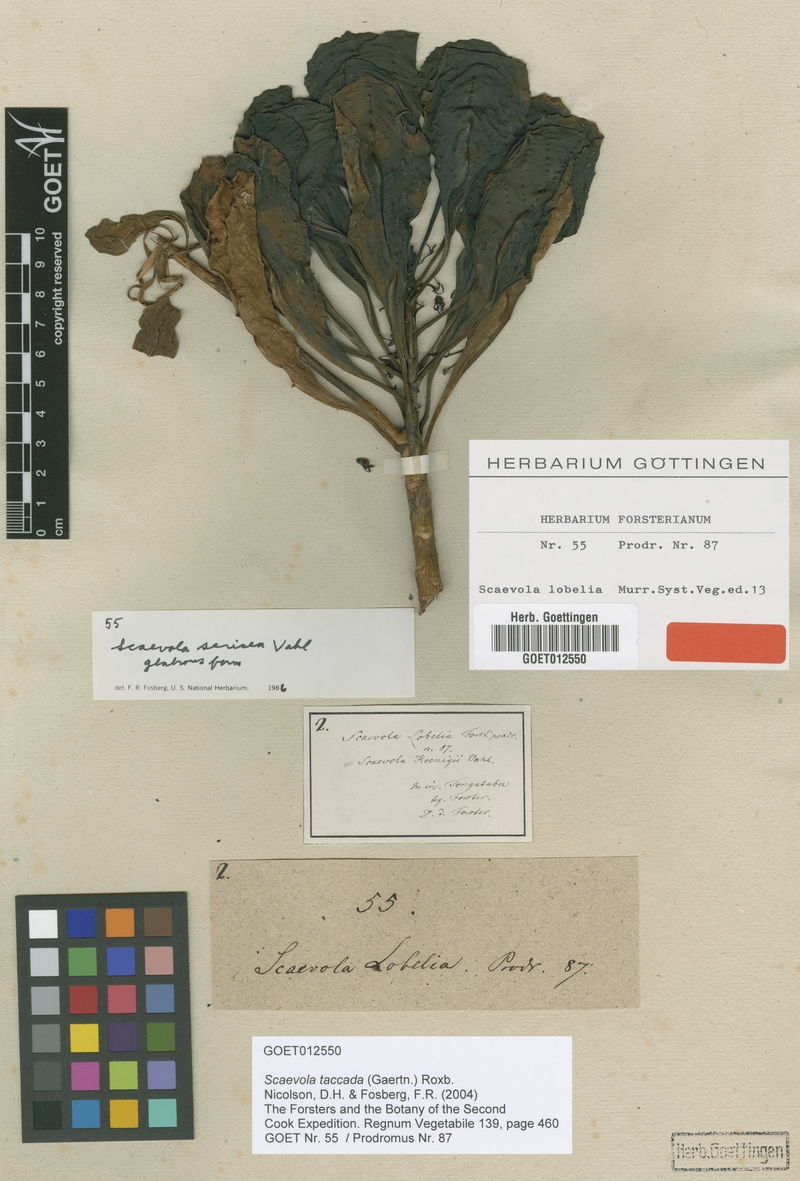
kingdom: Plantae
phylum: Tracheophyta
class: Magnoliopsida
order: Asterales
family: Goodeniaceae
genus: Scaevola
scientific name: Scaevola taccada
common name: Sea lettucetree
